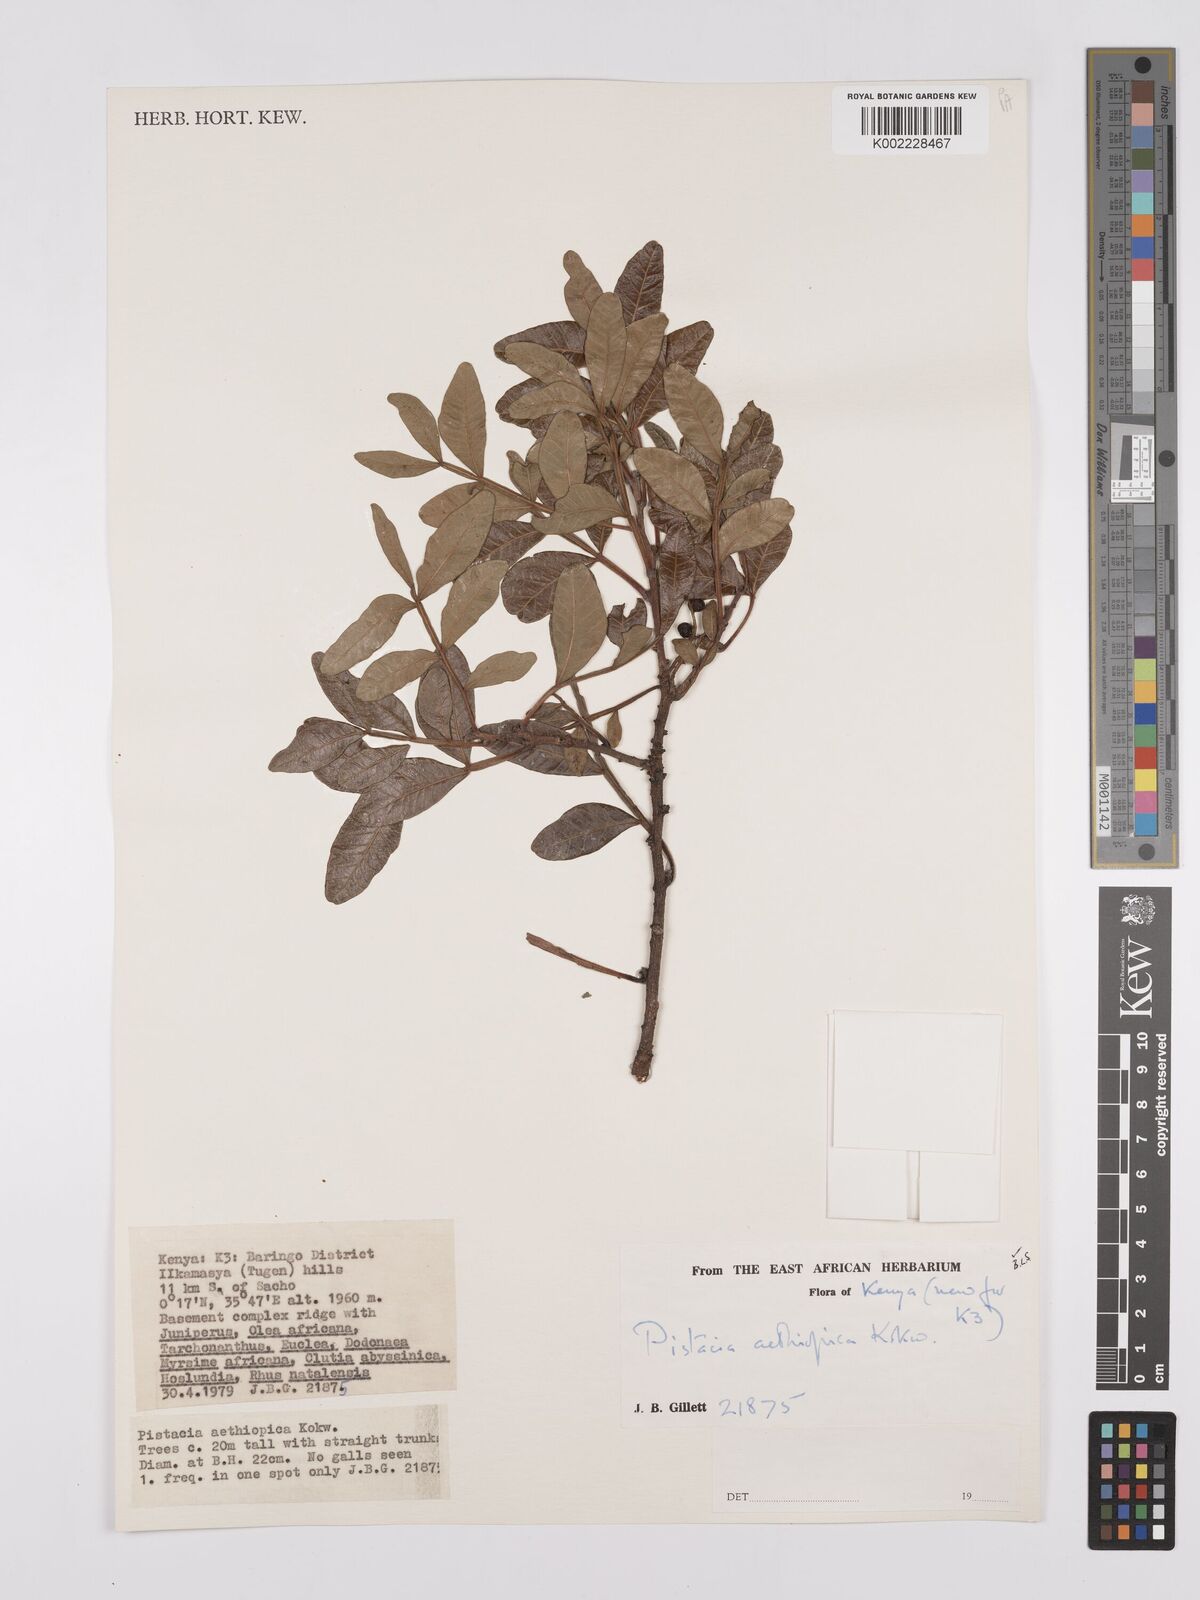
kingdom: Plantae
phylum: Tracheophyta
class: Magnoliopsida
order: Sapindales
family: Anacardiaceae
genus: Pistacia
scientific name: Pistacia lentiscus
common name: Lentisk
